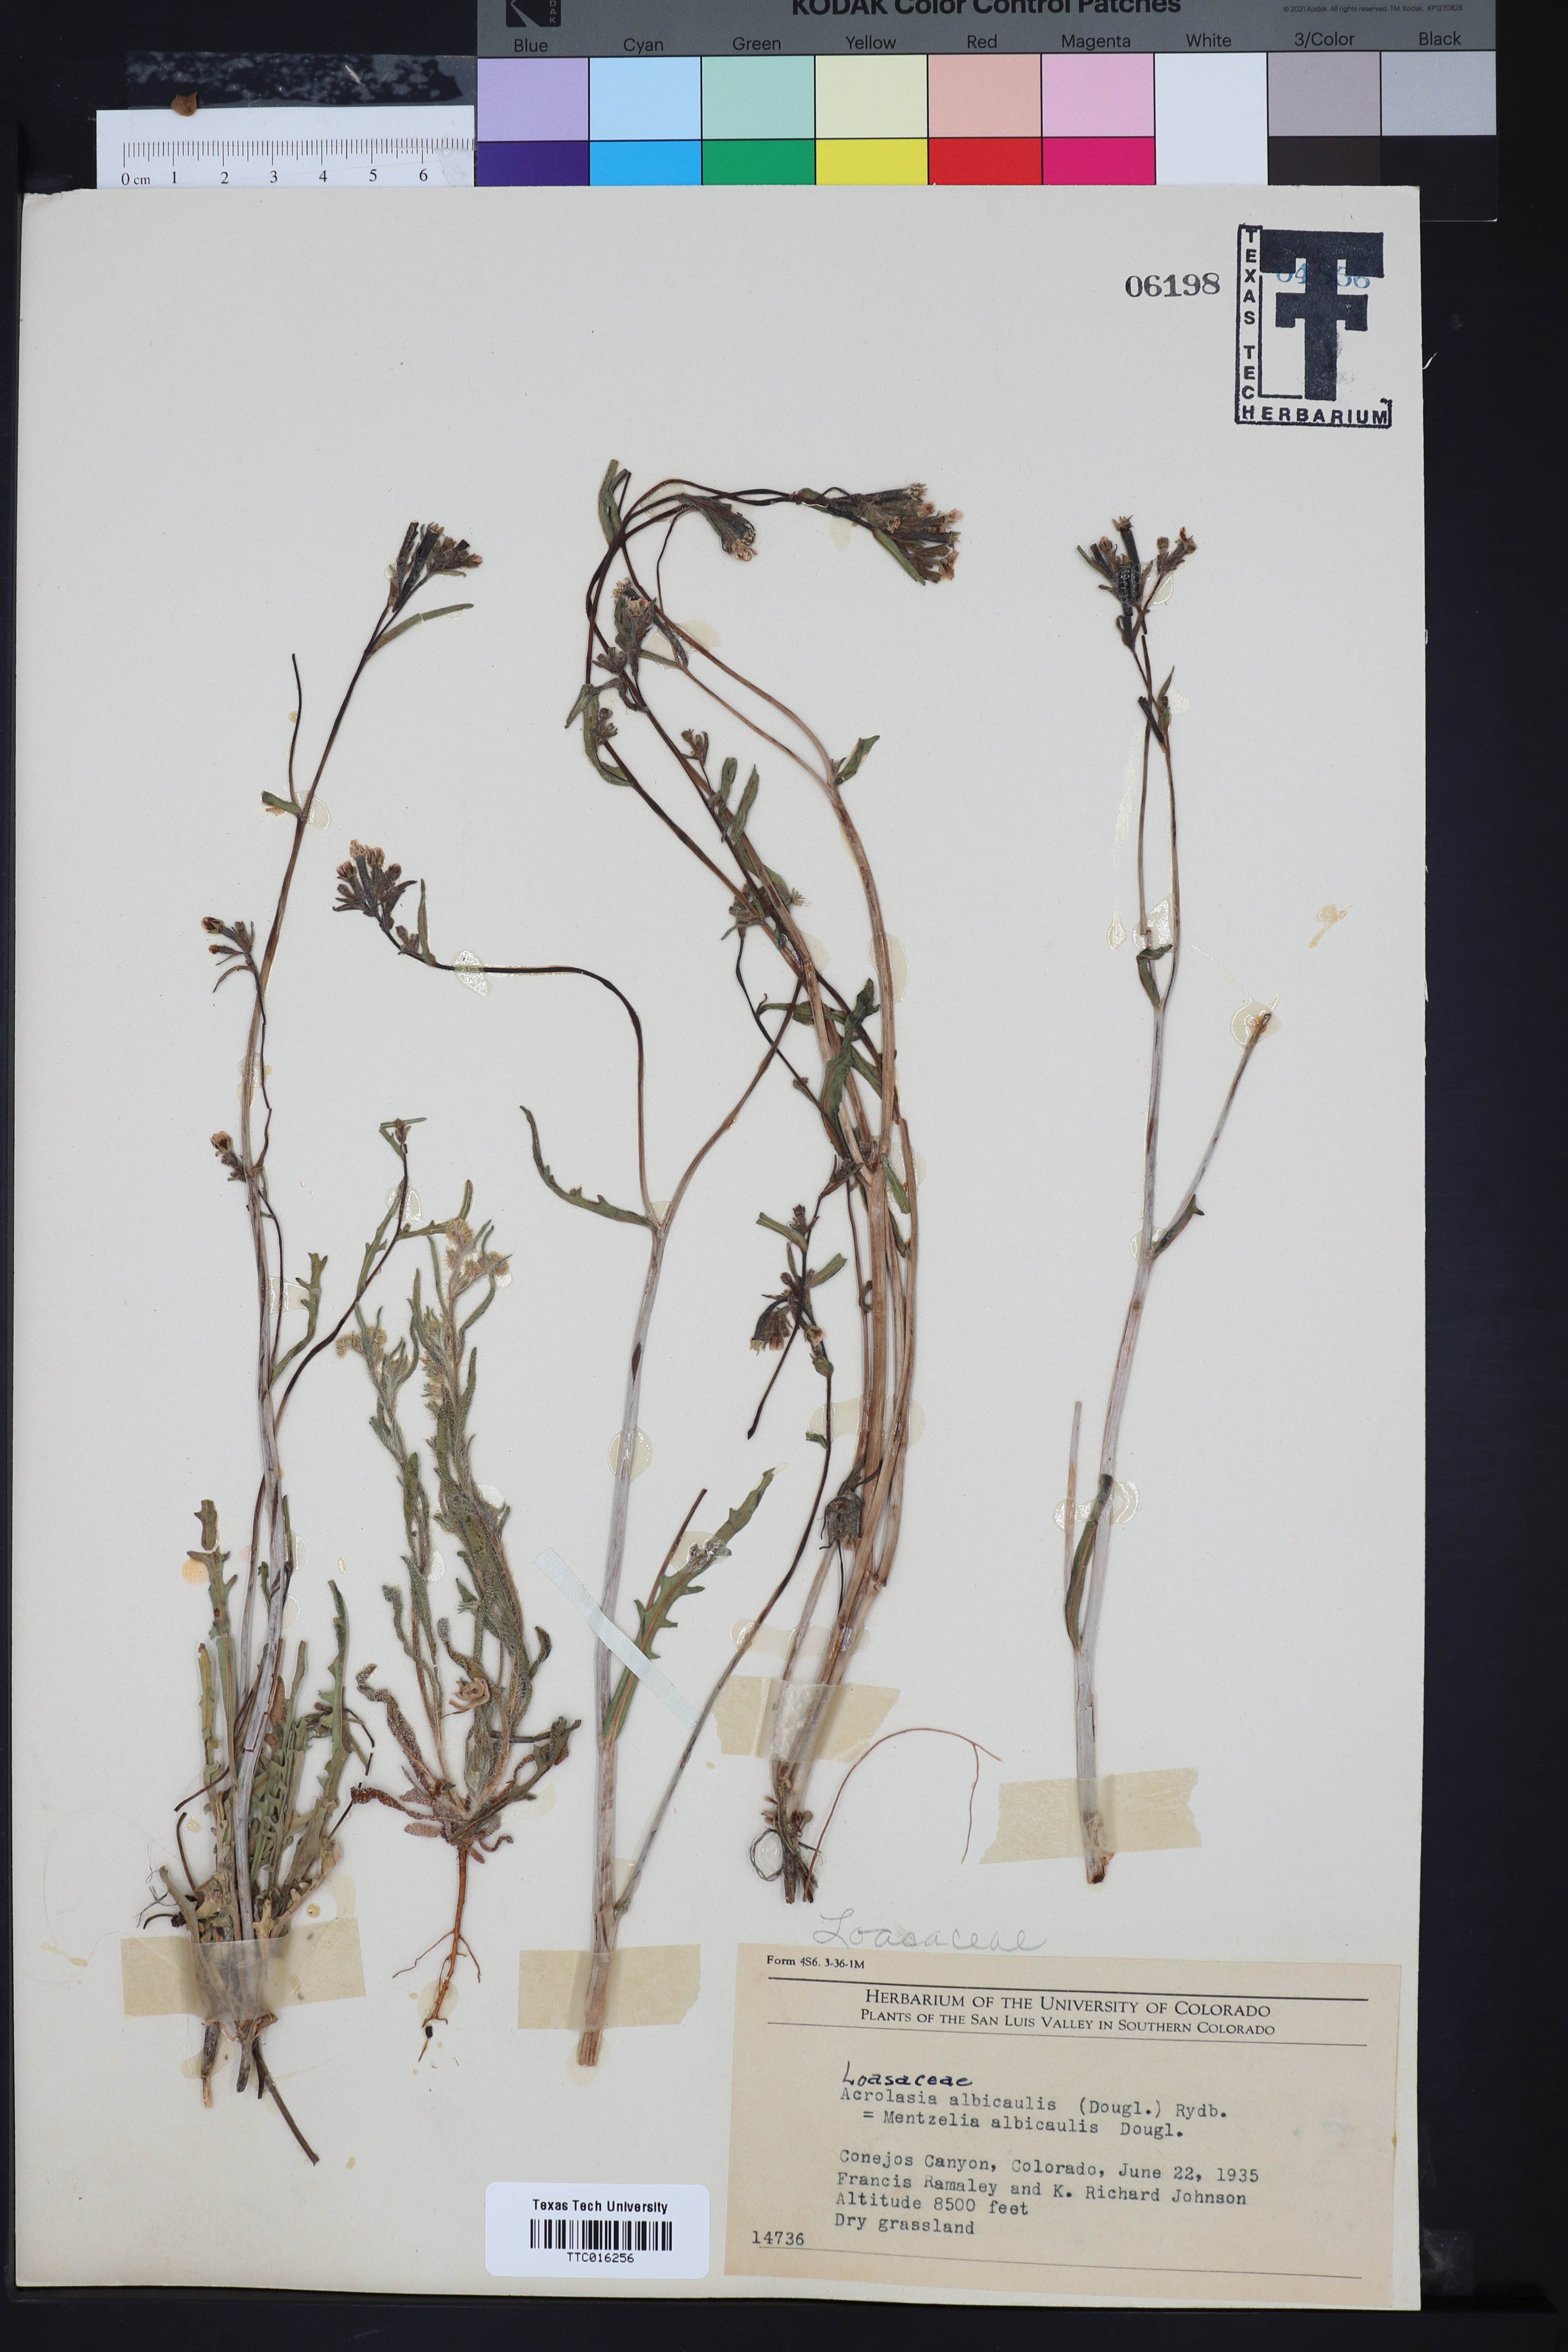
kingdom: Plantae
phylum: Tracheophyta
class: Magnoliopsida
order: Cornales
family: Loasaceae
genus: Mentzelia
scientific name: Mentzelia albicaulis
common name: White-stem blazingstar
